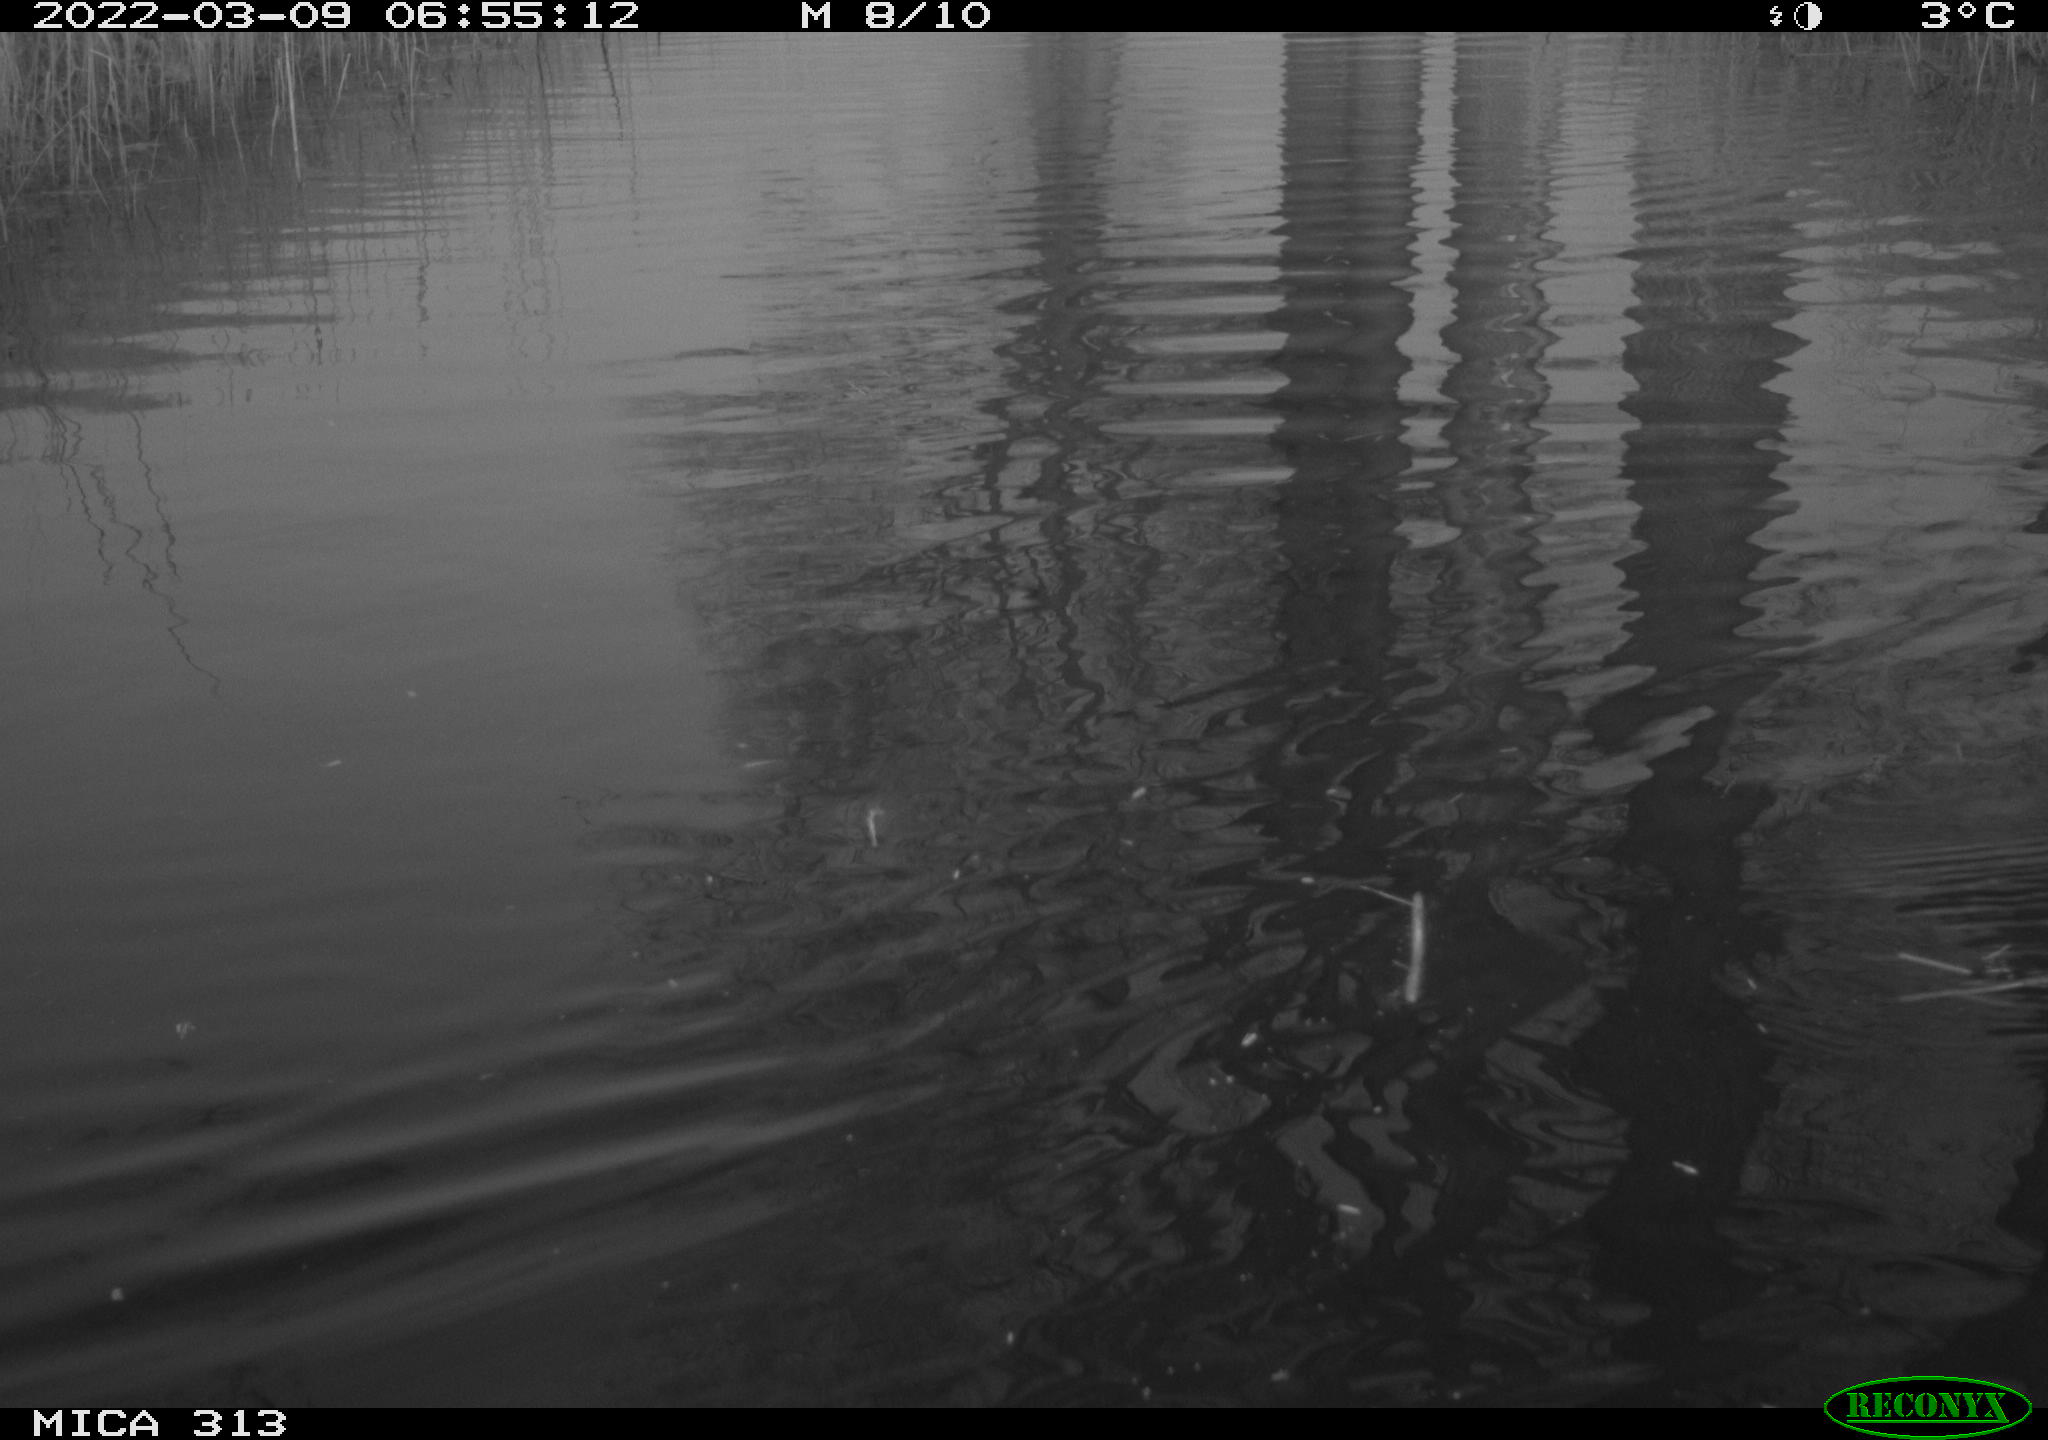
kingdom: Animalia
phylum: Chordata
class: Aves
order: Anseriformes
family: Anatidae
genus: Anas
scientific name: Anas platyrhynchos
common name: Mallard
